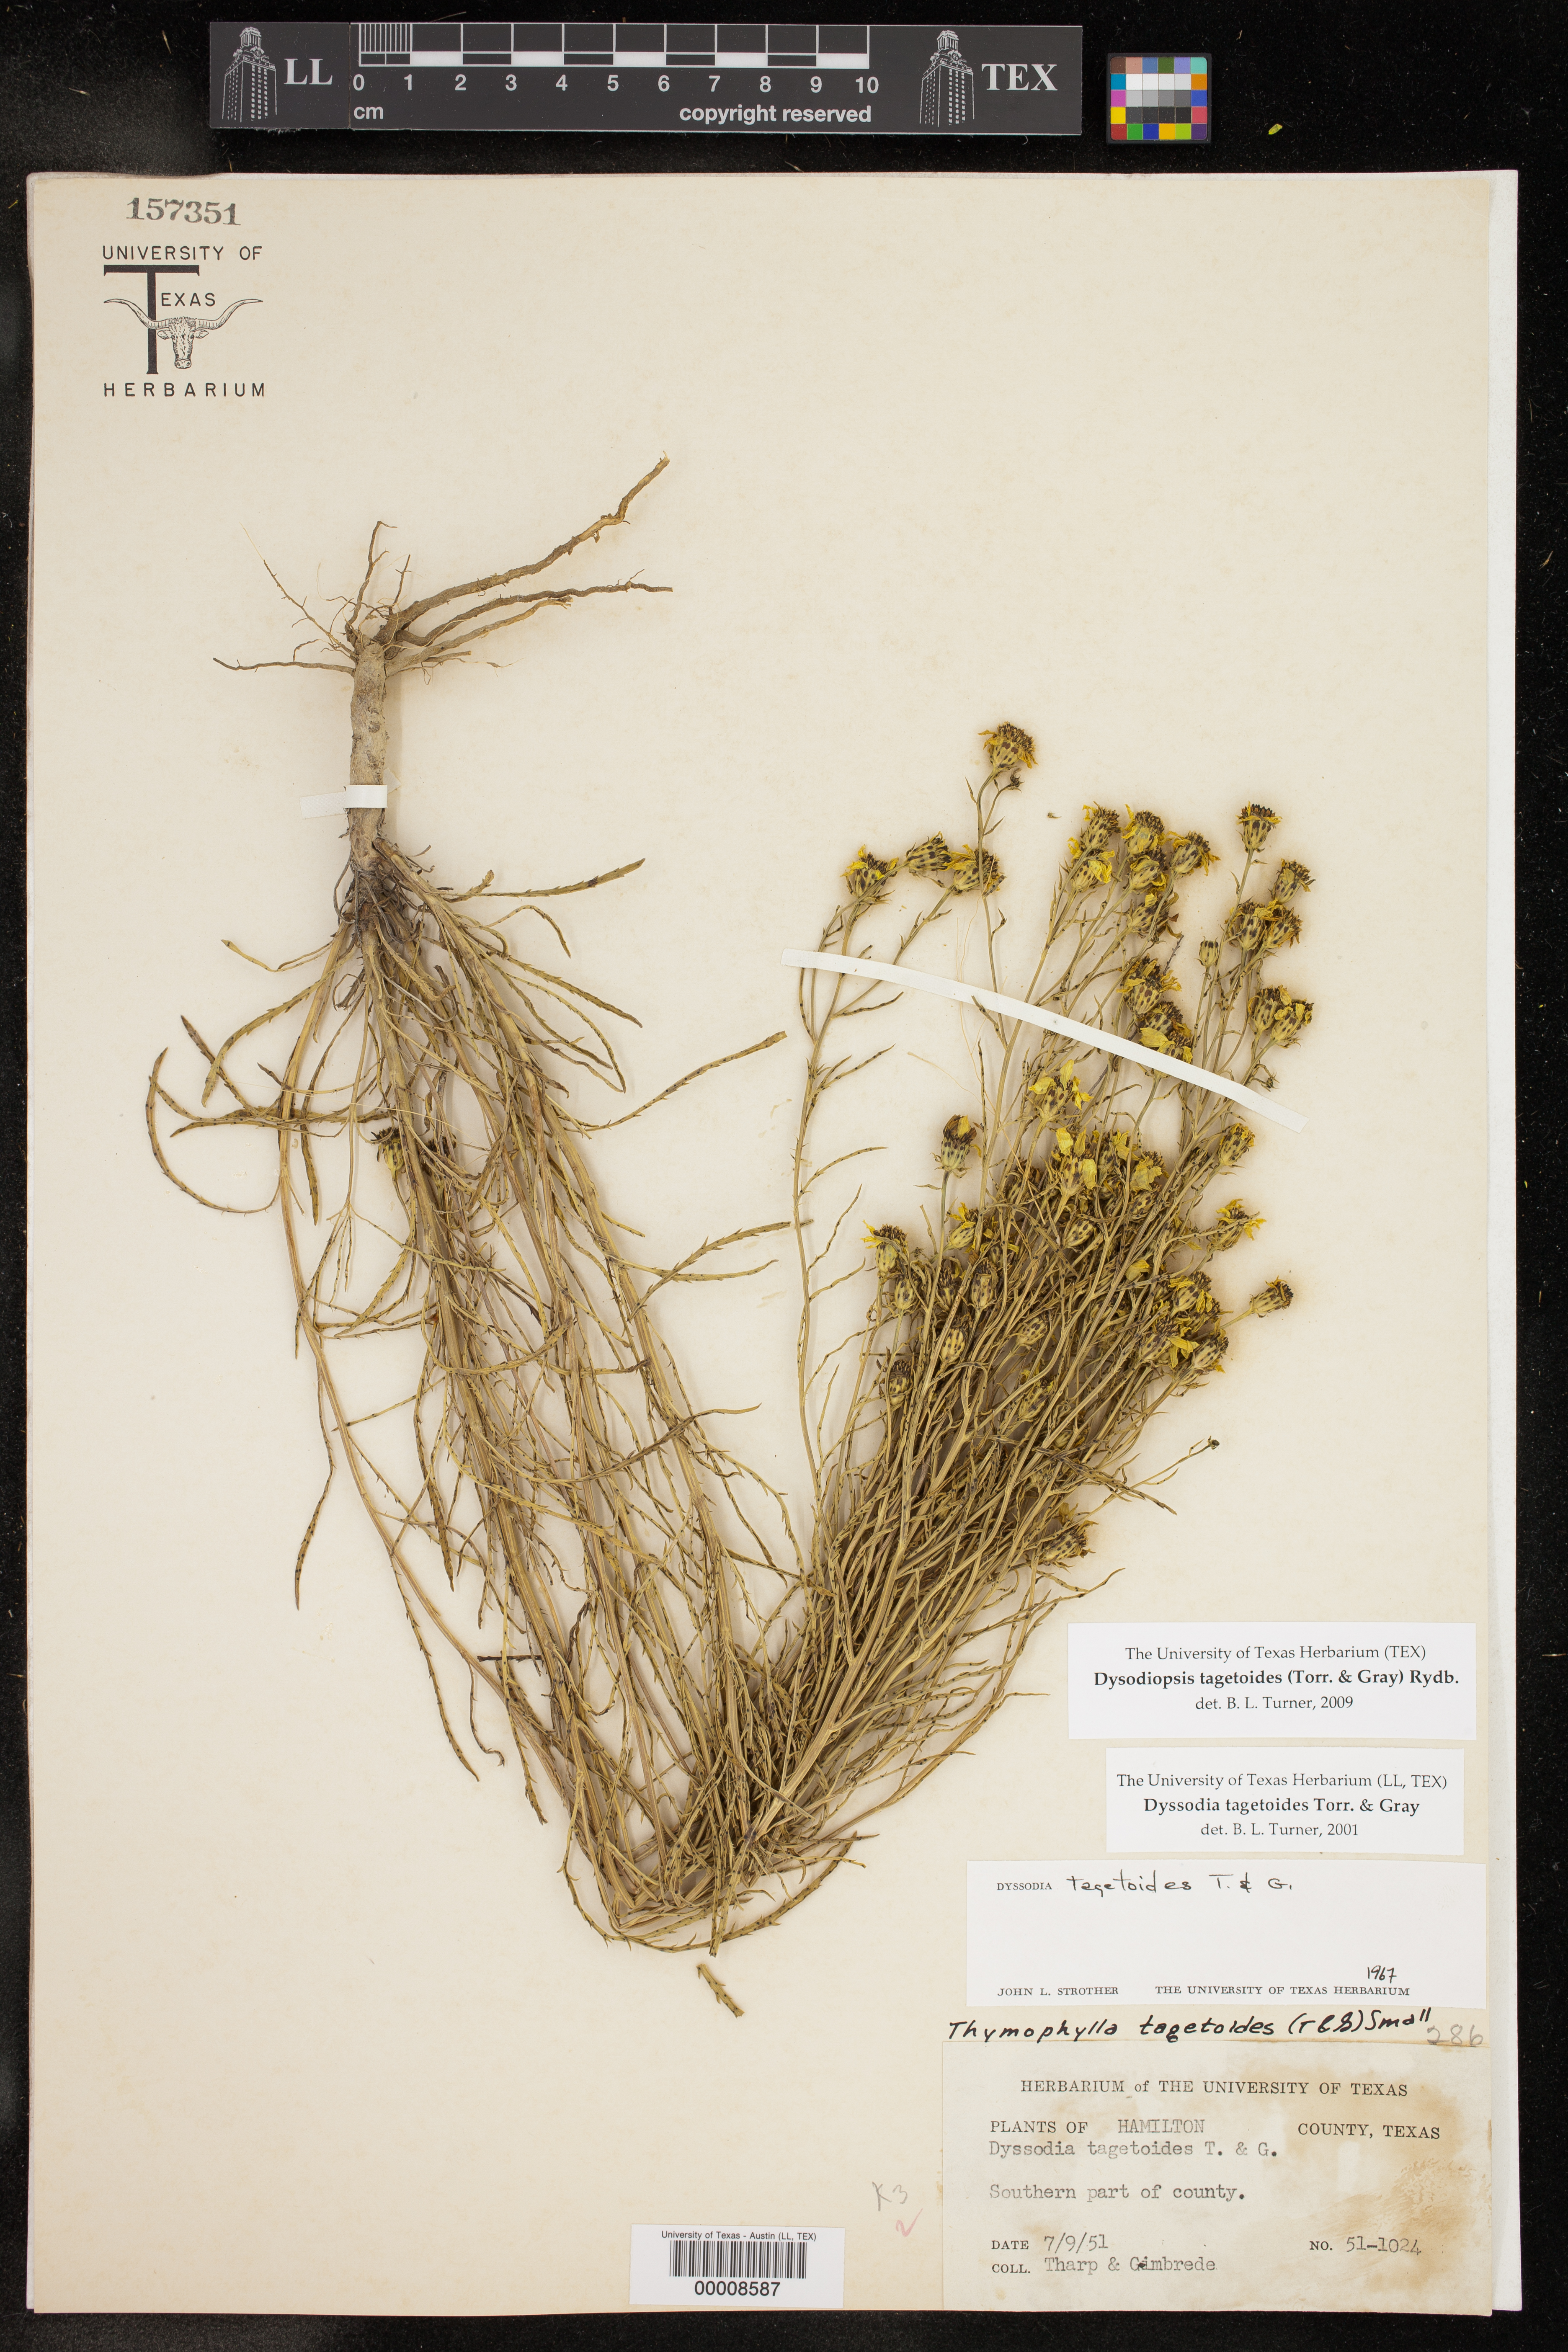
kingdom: Plantae
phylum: Tracheophyta
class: Magnoliopsida
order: Asterales
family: Asteraceae
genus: Dysodiopsis
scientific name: Dysodiopsis tagetoides
